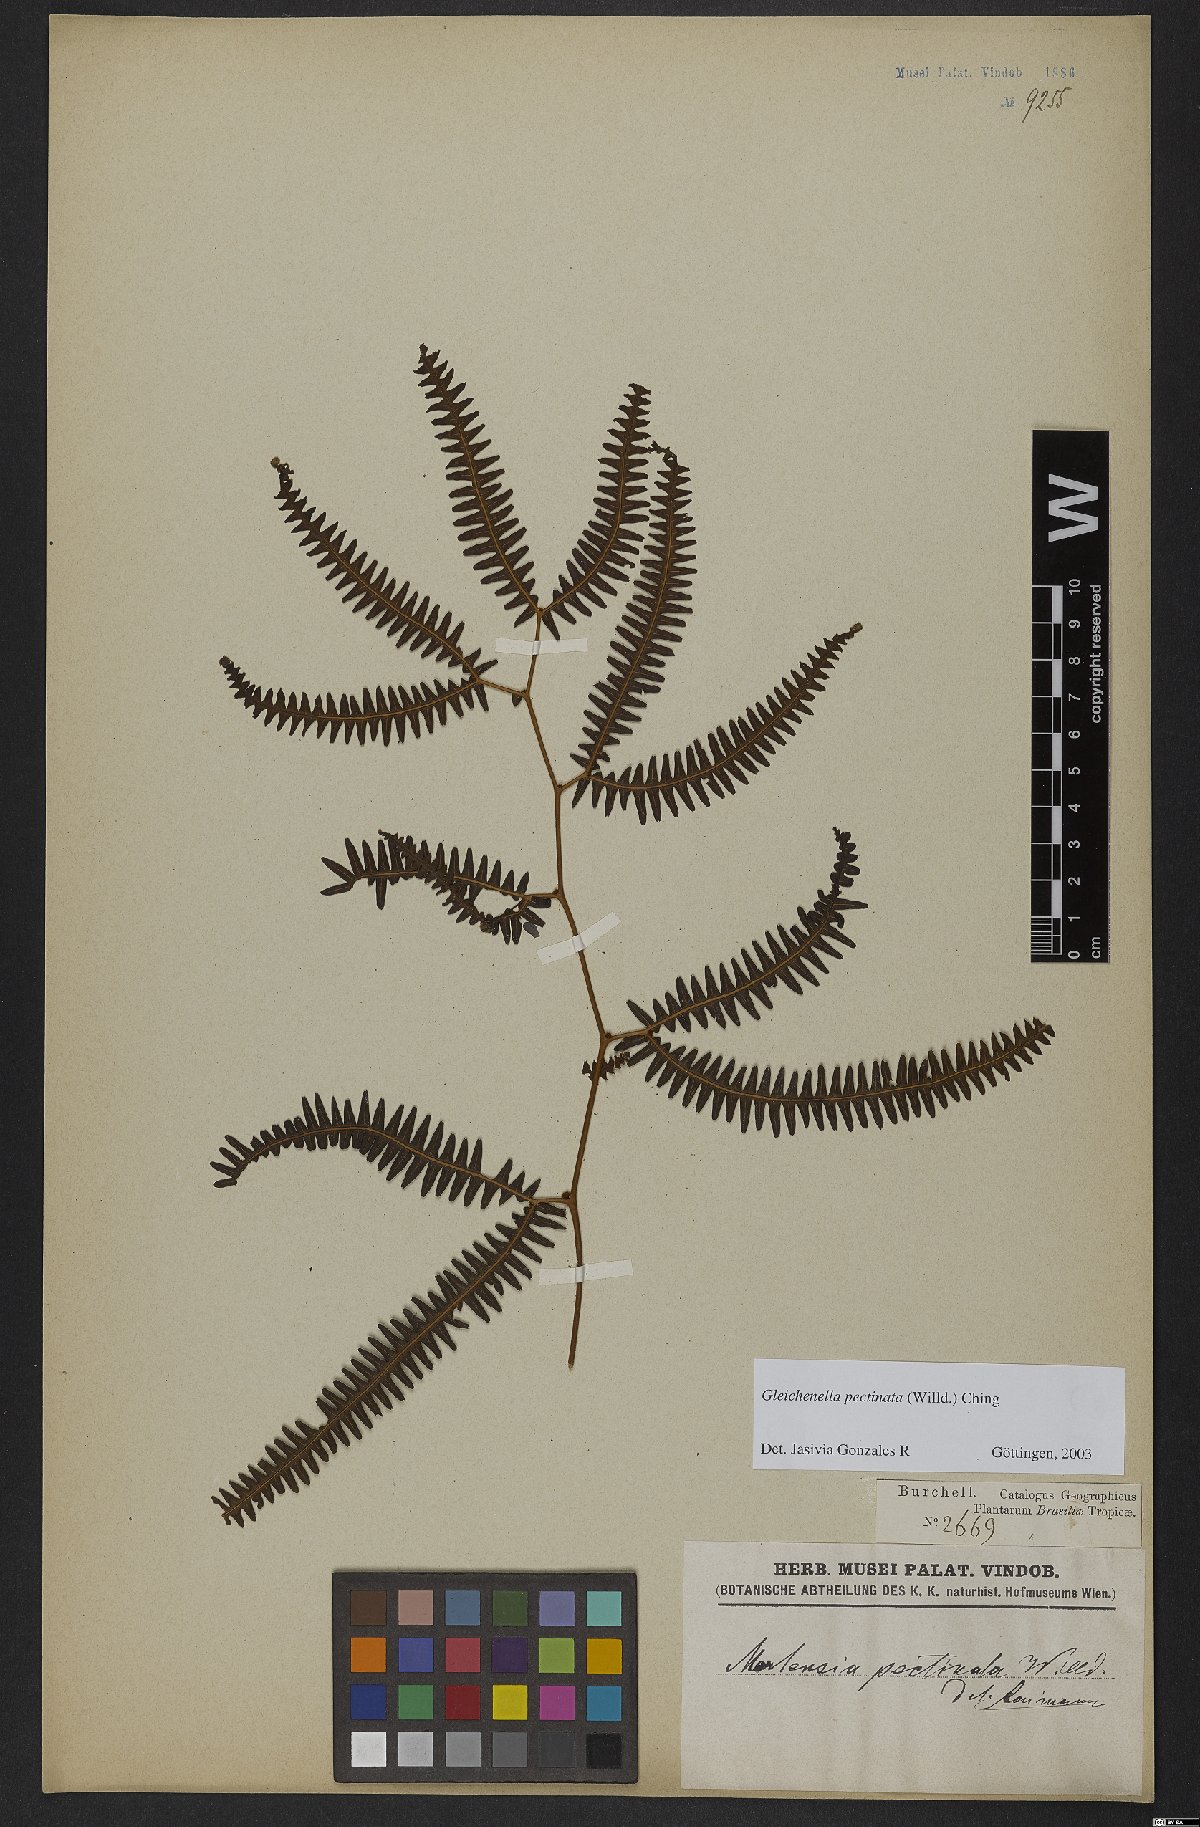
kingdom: Plantae
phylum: Tracheophyta
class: Polypodiopsida
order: Gleicheniales
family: Gleicheniaceae
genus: Gleichenella
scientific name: Gleichenella pectinata
